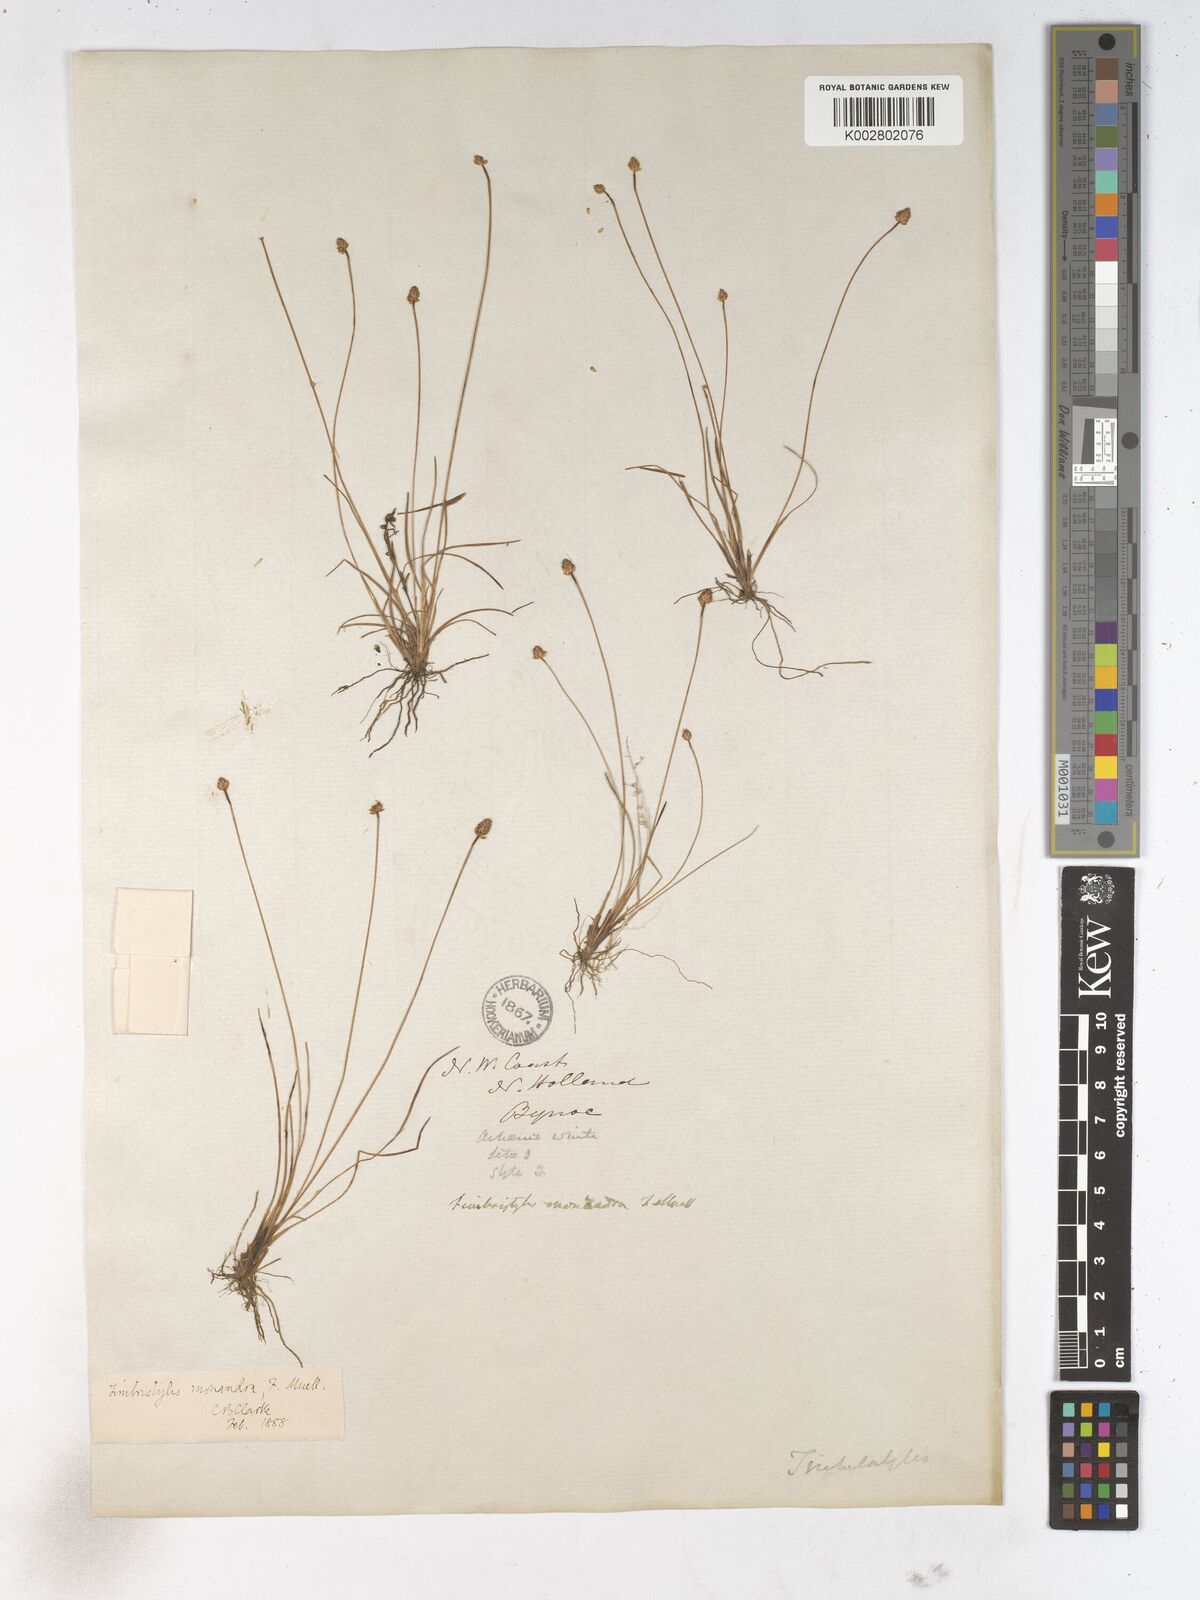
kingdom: Plantae
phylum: Tracheophyta
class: Liliopsida
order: Poales
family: Cyperaceae
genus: Fimbristylis
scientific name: Fimbristylis sphaerocephala
